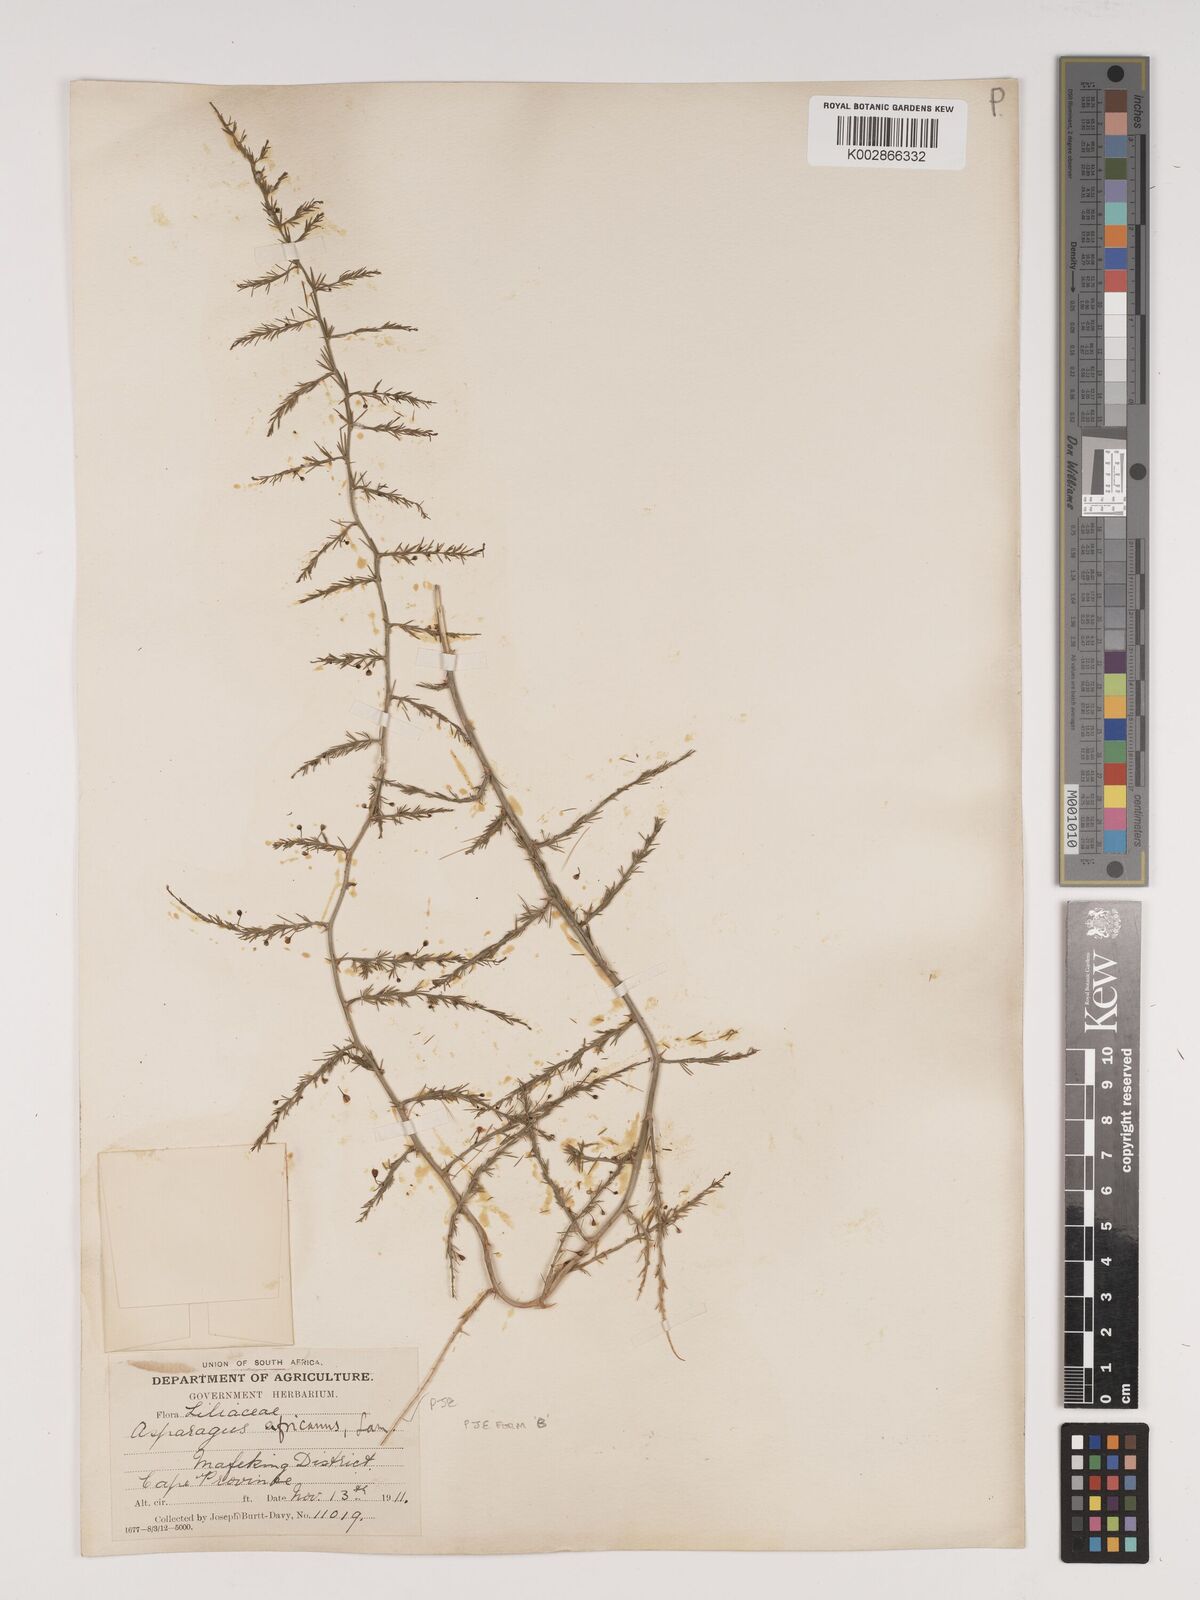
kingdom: Plantae
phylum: Tracheophyta
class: Liliopsida
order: Asparagales
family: Asparagaceae
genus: Asparagus
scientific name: Asparagus africanus
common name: Asparagus-fern
